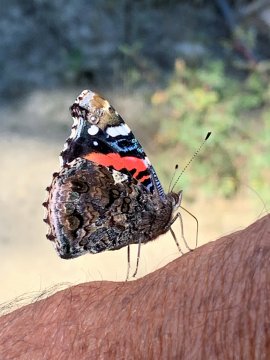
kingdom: Animalia
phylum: Arthropoda
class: Insecta
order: Lepidoptera
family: Nymphalidae
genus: Vanessa
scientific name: Vanessa atalanta
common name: Red Admiral
